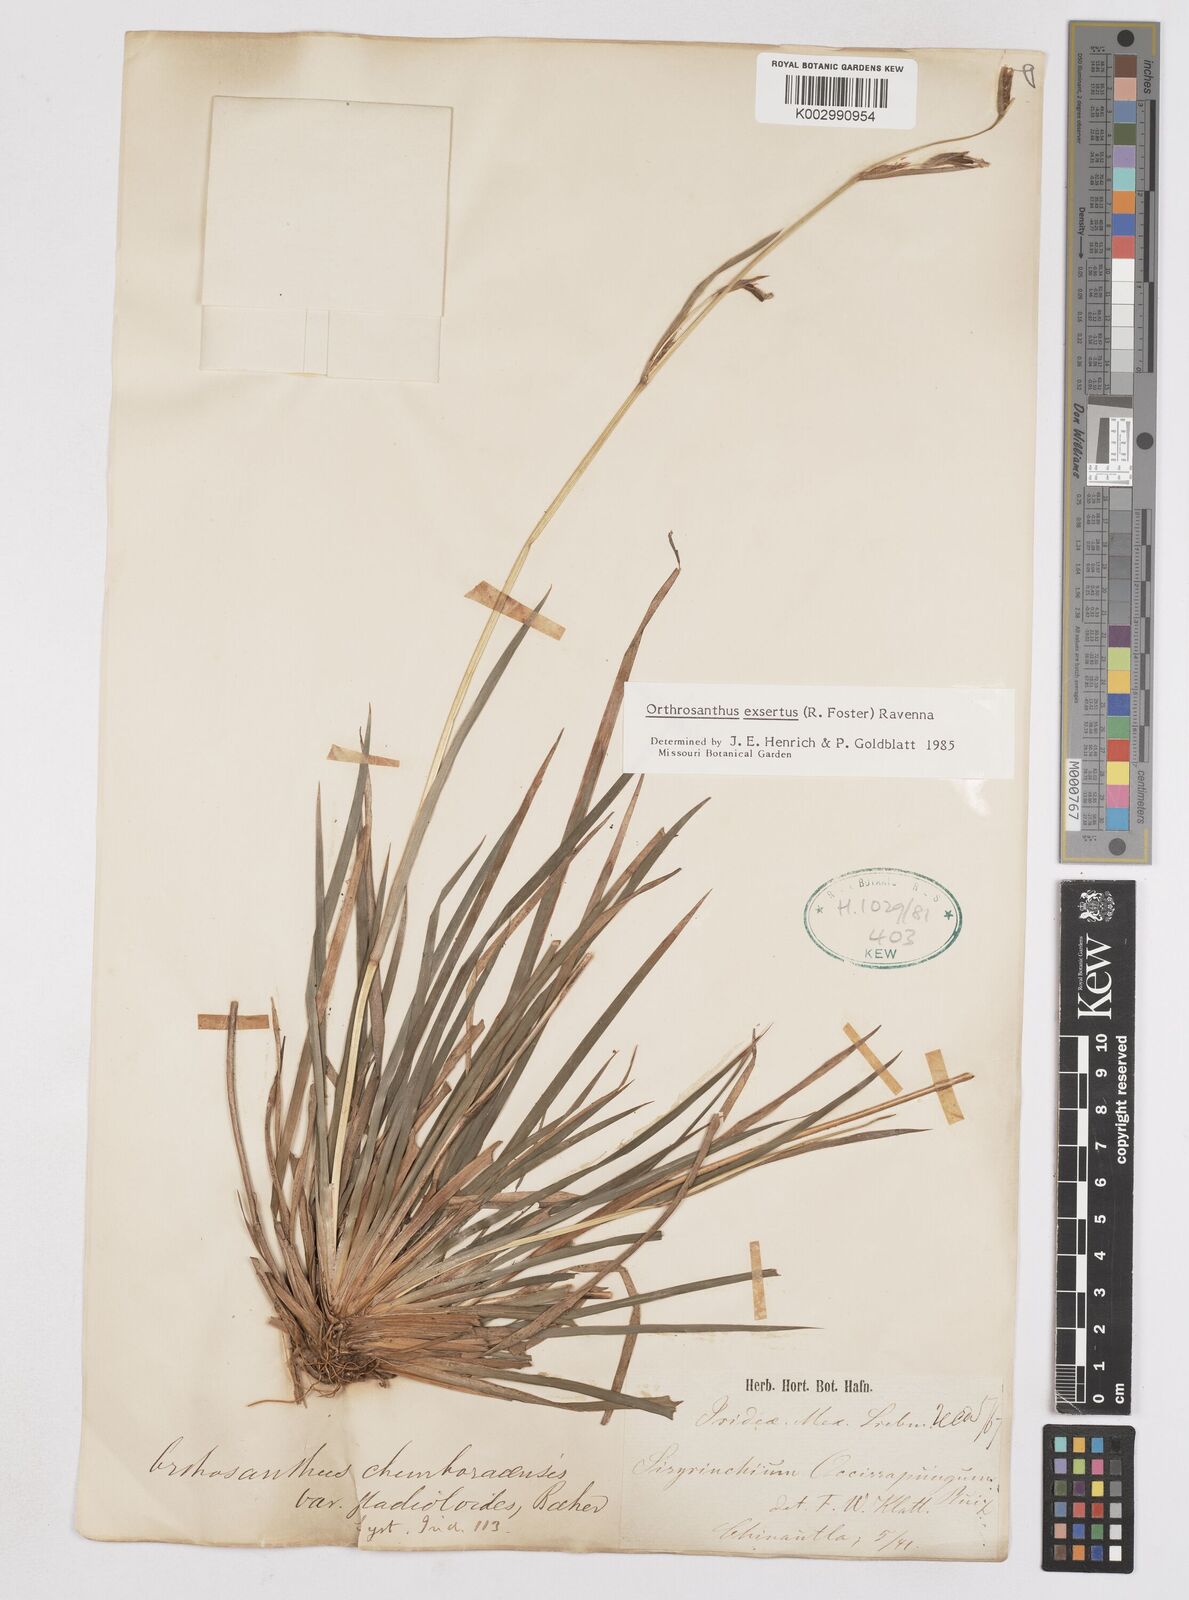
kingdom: Plantae
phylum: Tracheophyta
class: Liliopsida
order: Asparagales
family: Iridaceae
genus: Orthrosanthus
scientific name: Orthrosanthus exsertus
